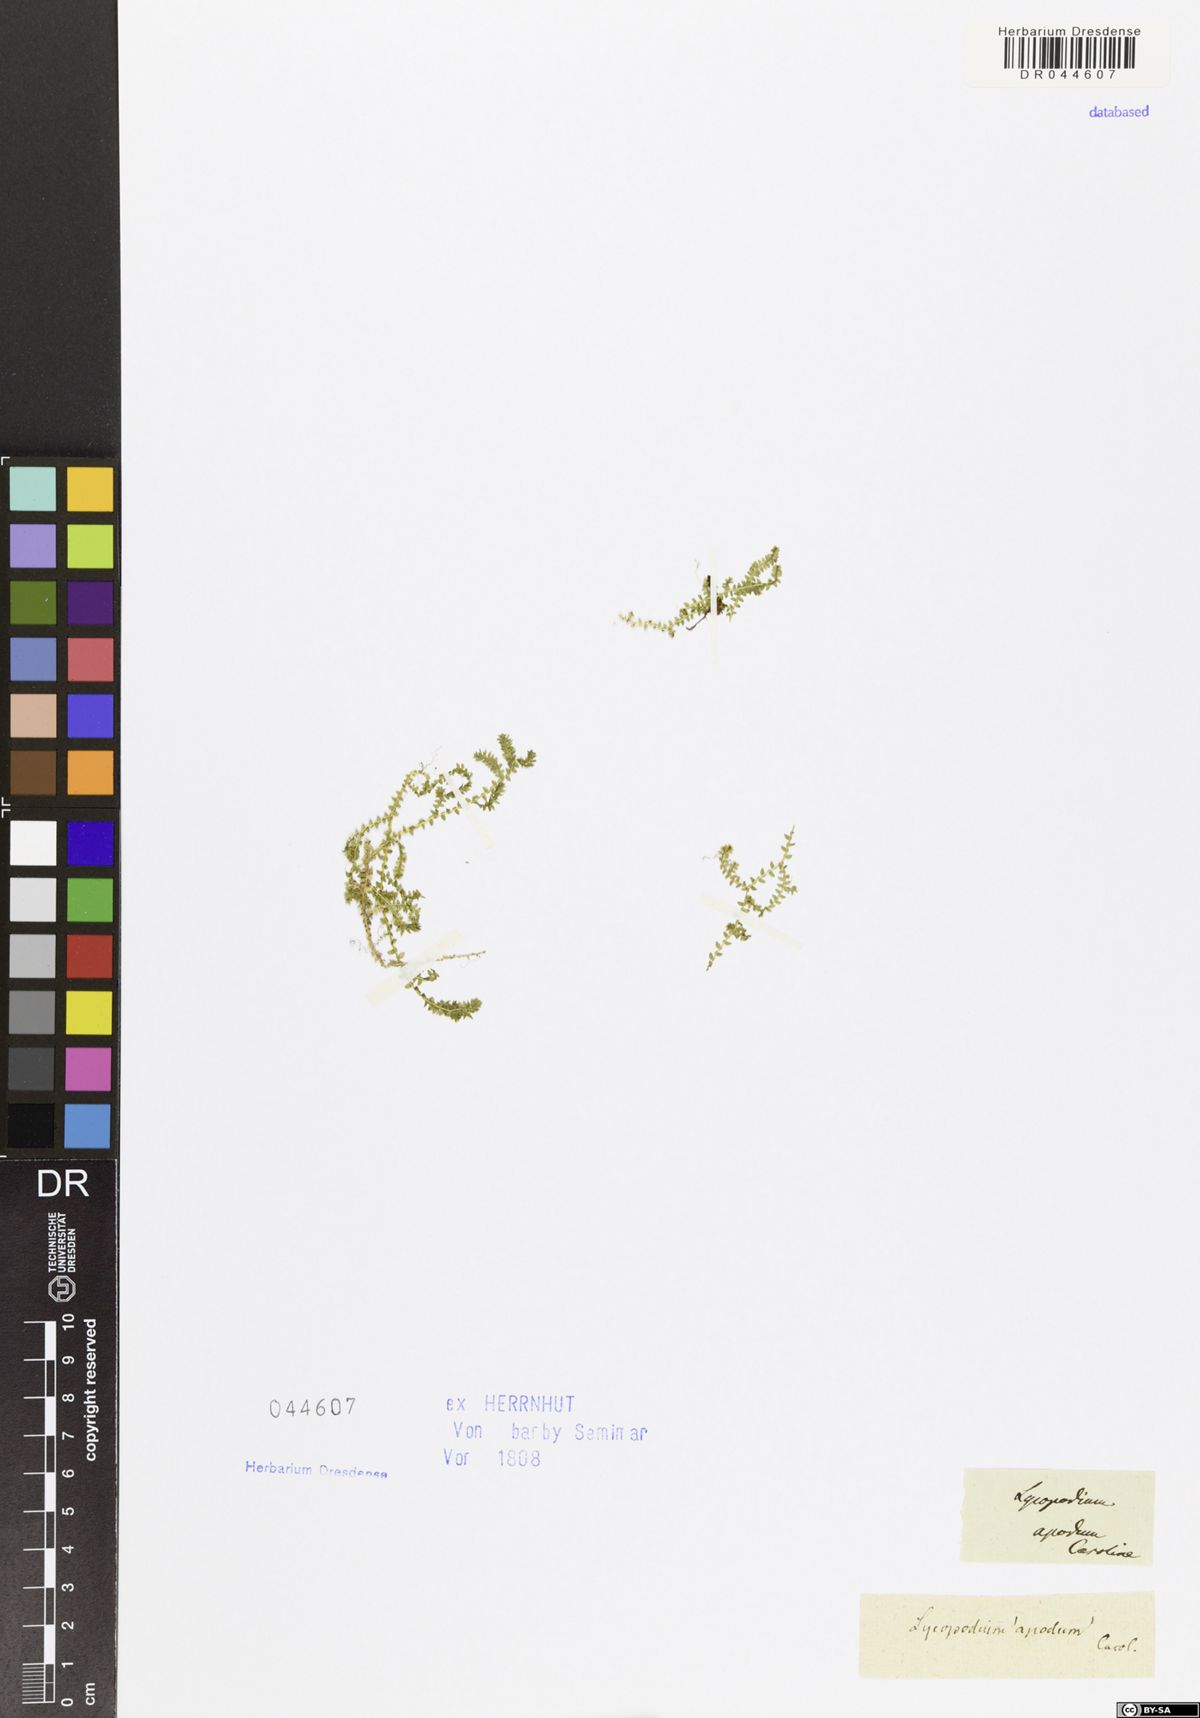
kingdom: Plantae
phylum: Tracheophyta
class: Lycopodiopsida
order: Selaginellales
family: Selaginellaceae
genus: Selaginella
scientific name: Selaginella apoda
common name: Creeping spikemoss
